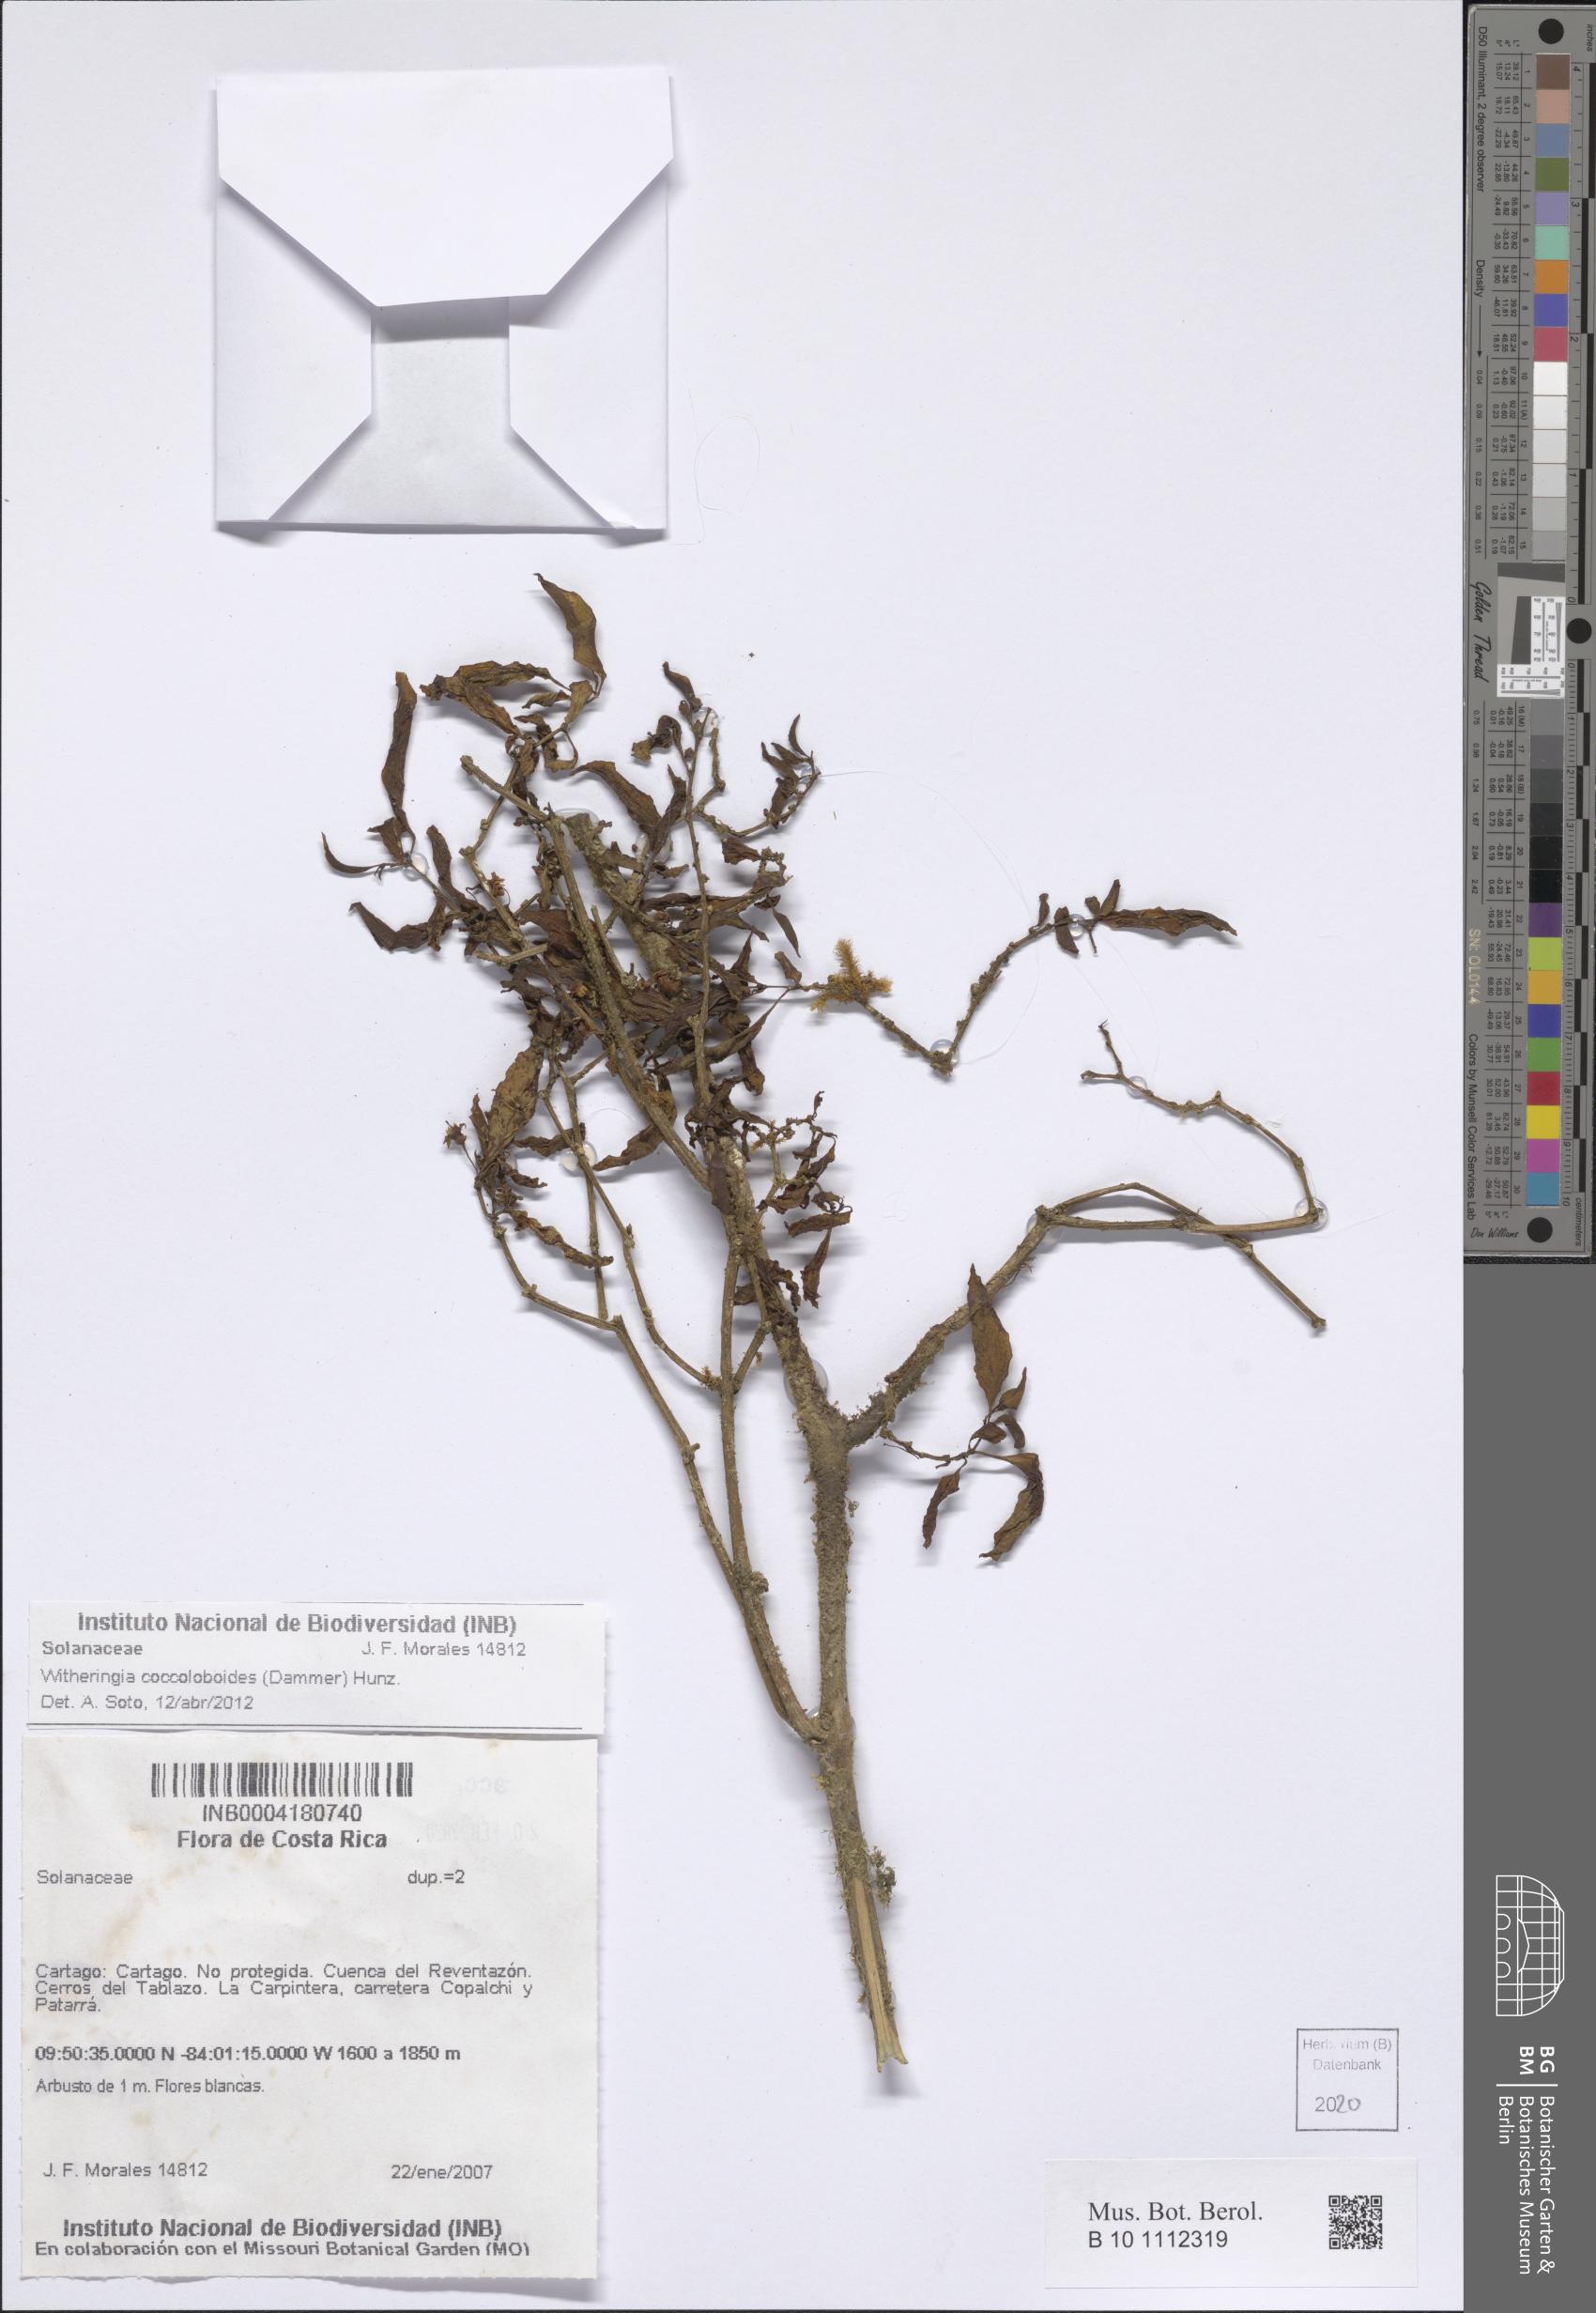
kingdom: Plantae
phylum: Tracheophyta
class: Magnoliopsida
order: Solanales
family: Solanaceae
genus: Witheringia
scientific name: Witheringia coccoloboides
